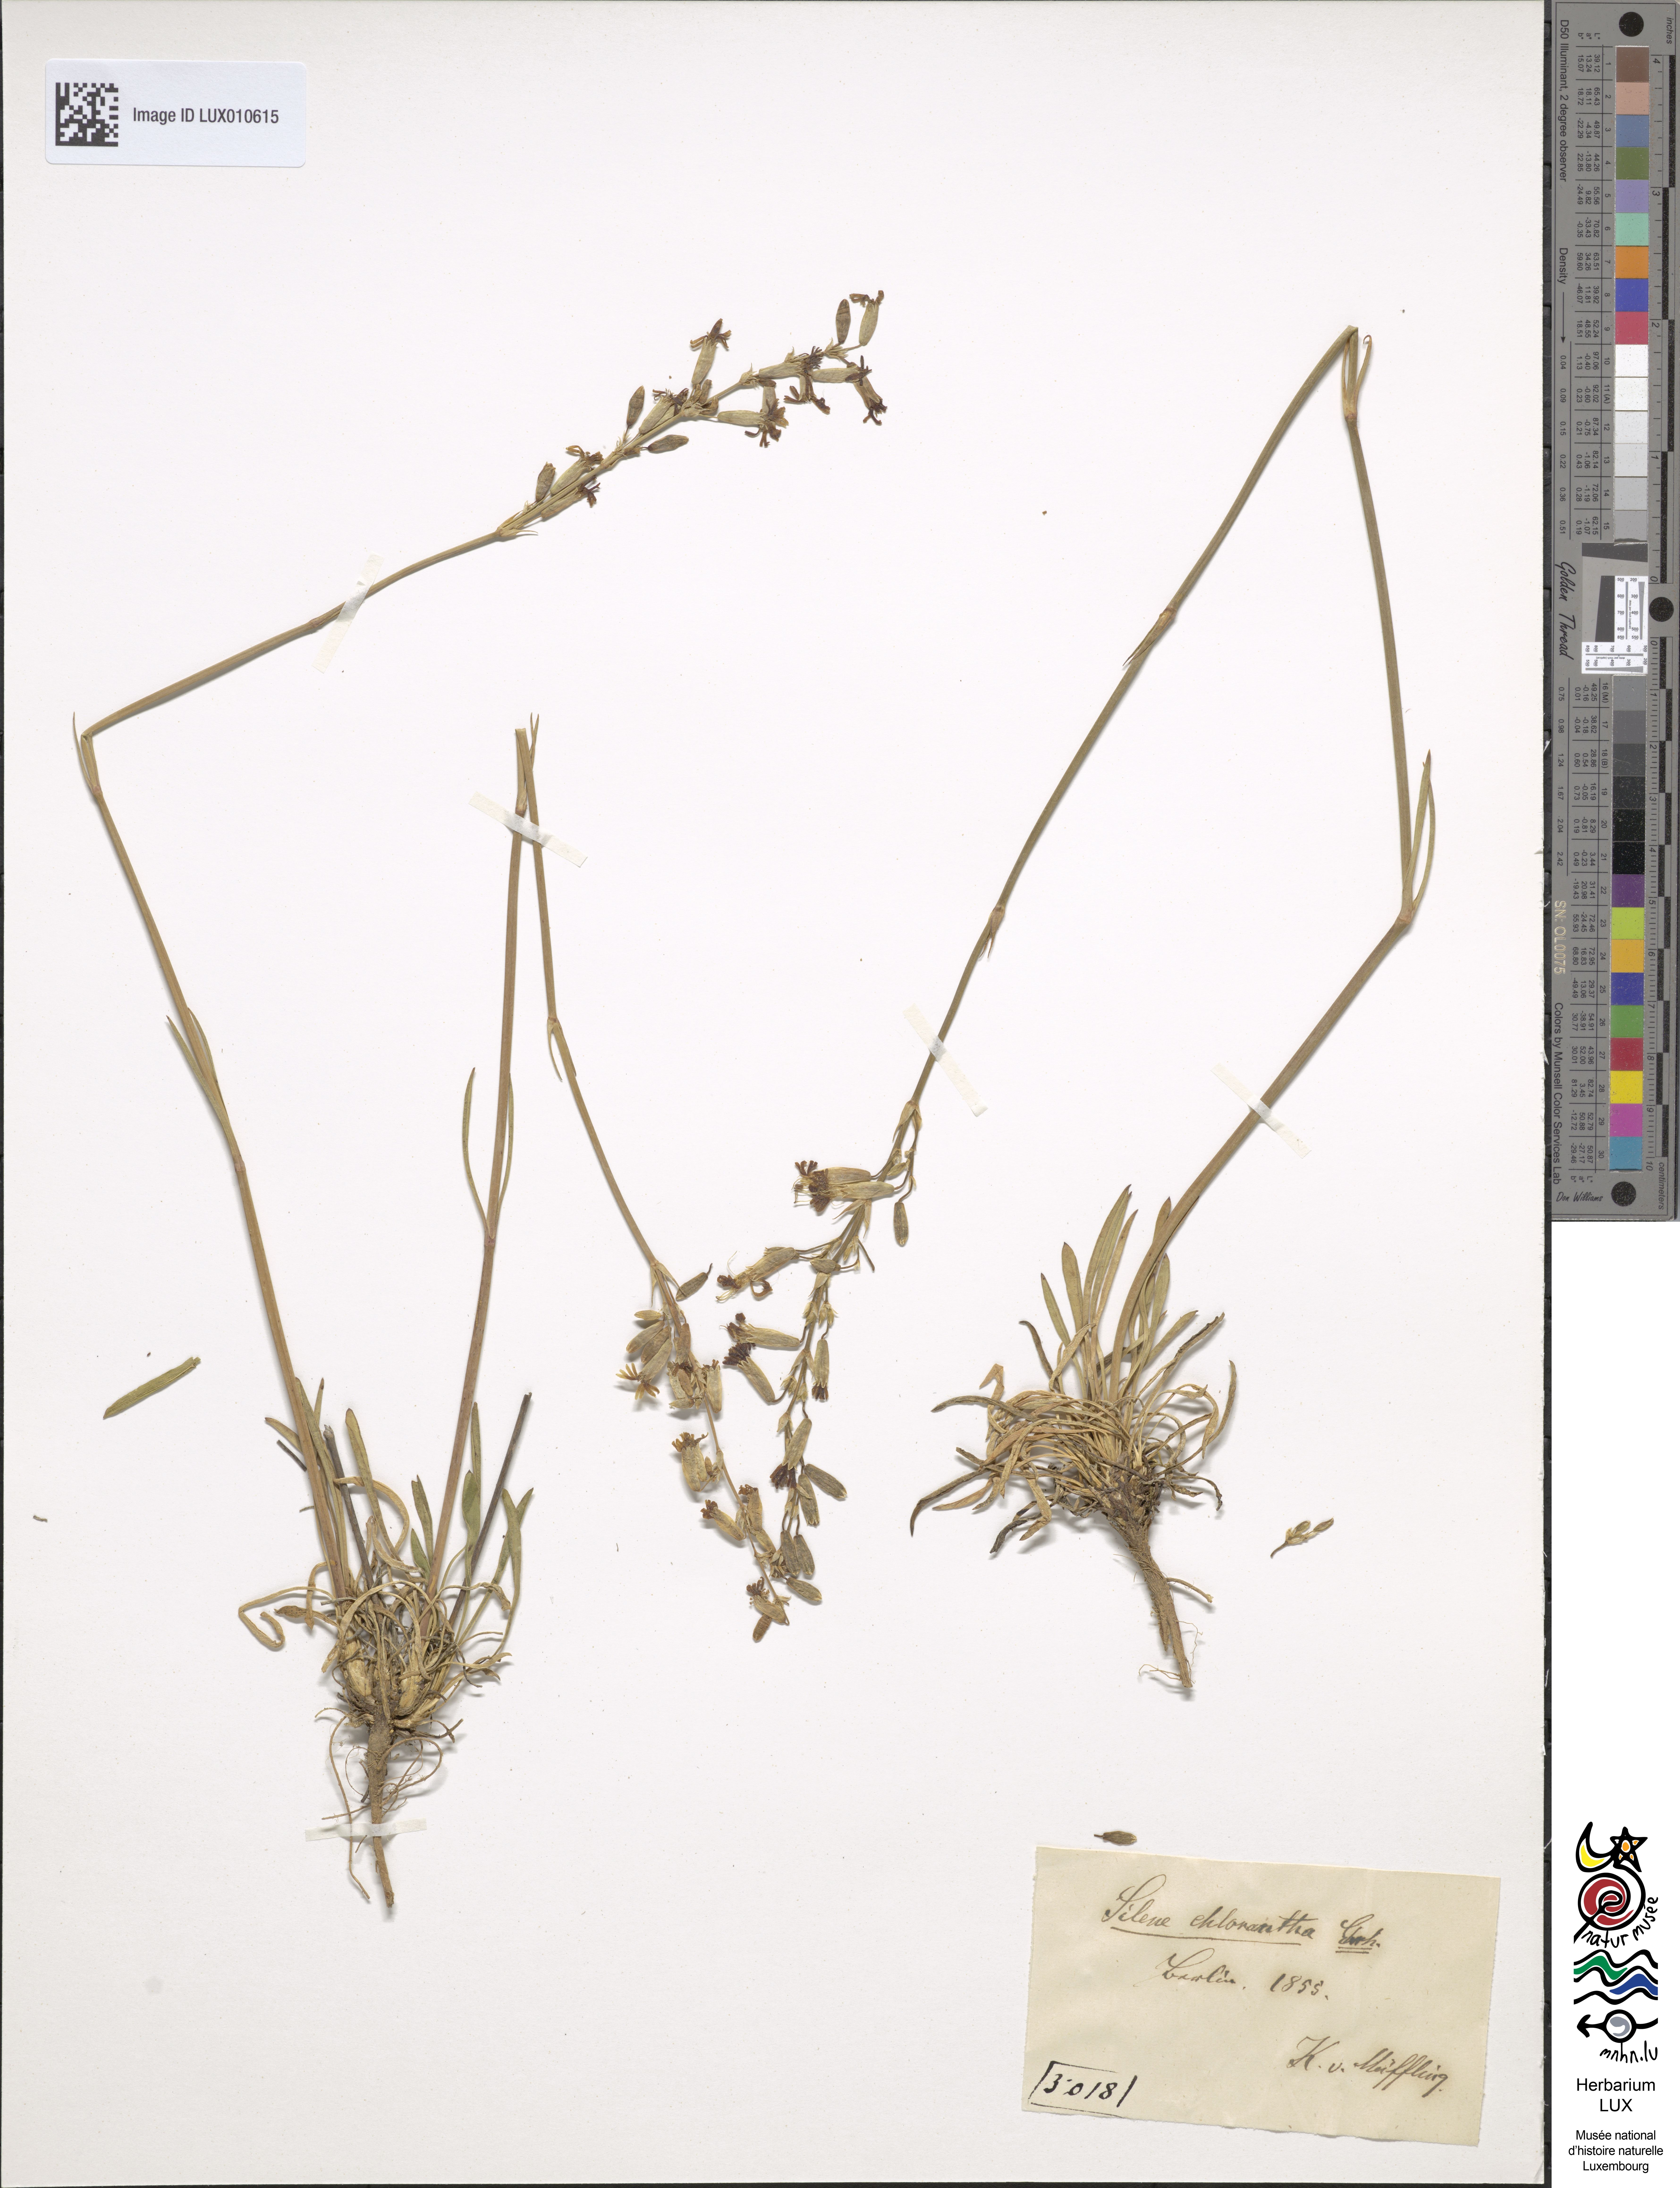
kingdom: Plantae
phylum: Tracheophyta
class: Magnoliopsida
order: Caryophyllales
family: Caryophyllaceae
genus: Silene
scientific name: Silene chlorantha
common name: Yellowgreen catchfly
